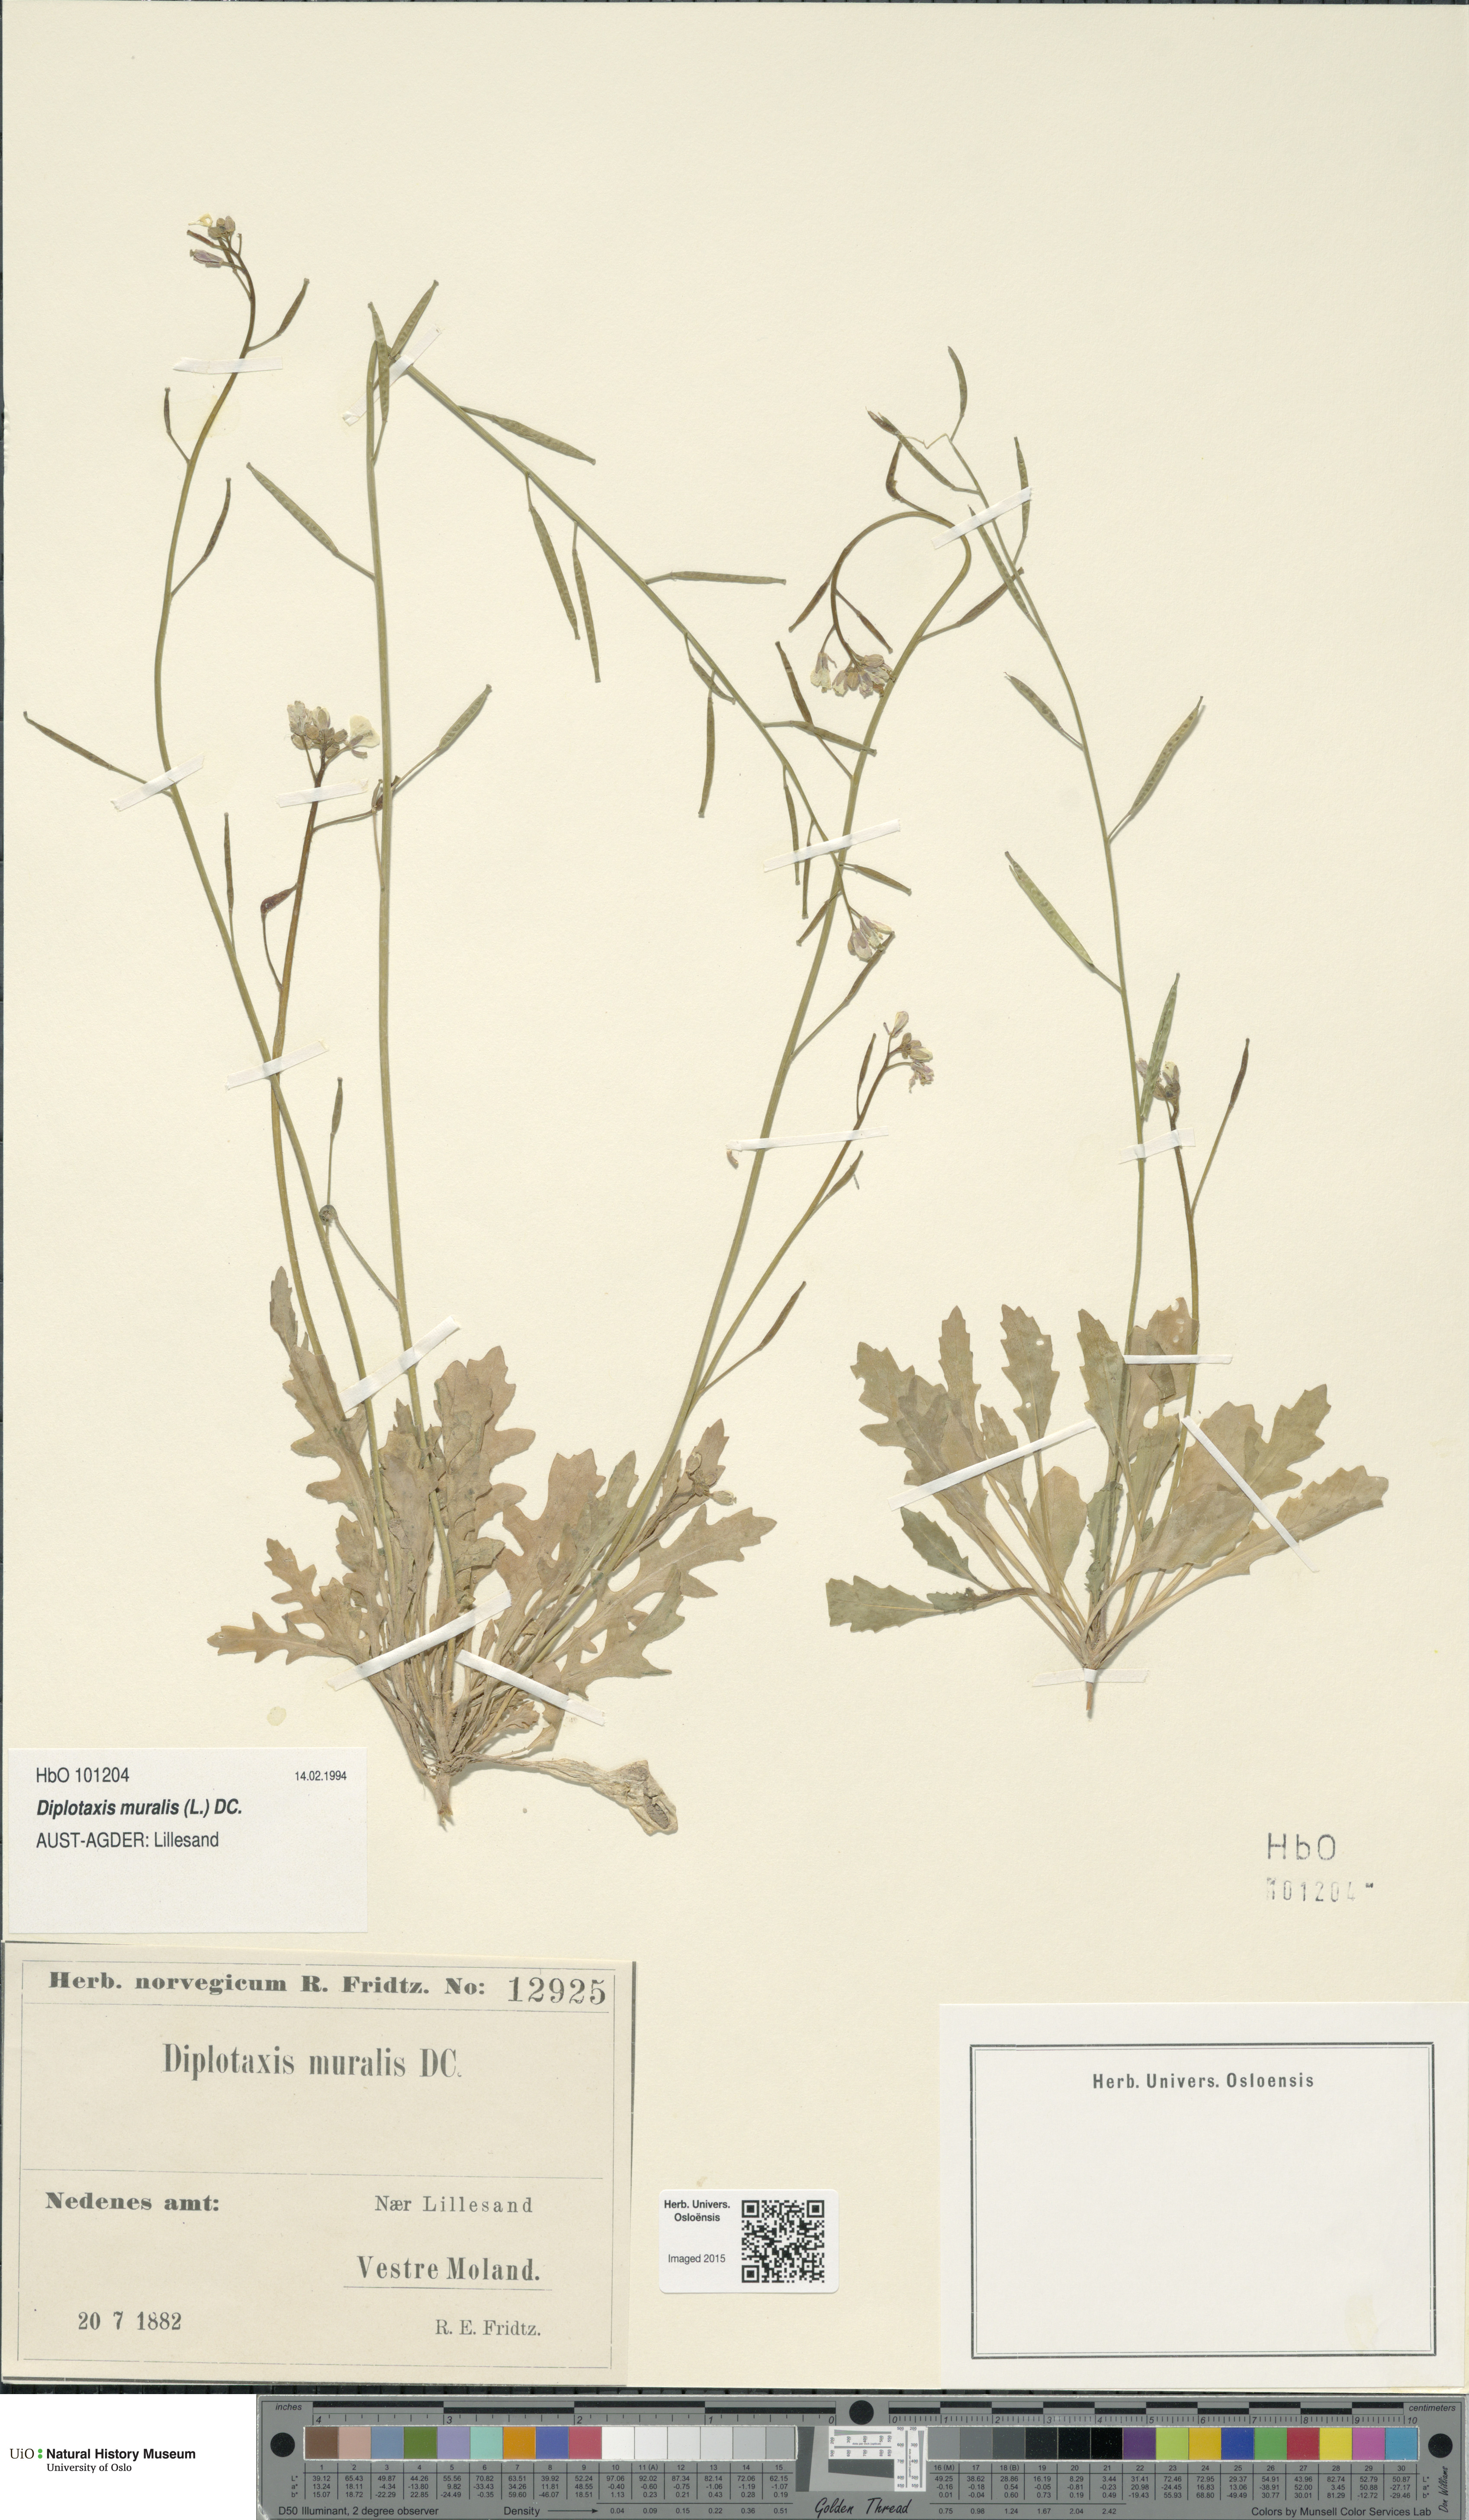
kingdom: Plantae
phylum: Tracheophyta
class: Magnoliopsida
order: Brassicales
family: Brassicaceae
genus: Diplotaxis
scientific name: Diplotaxis muralis
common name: Annual wall-rocket
